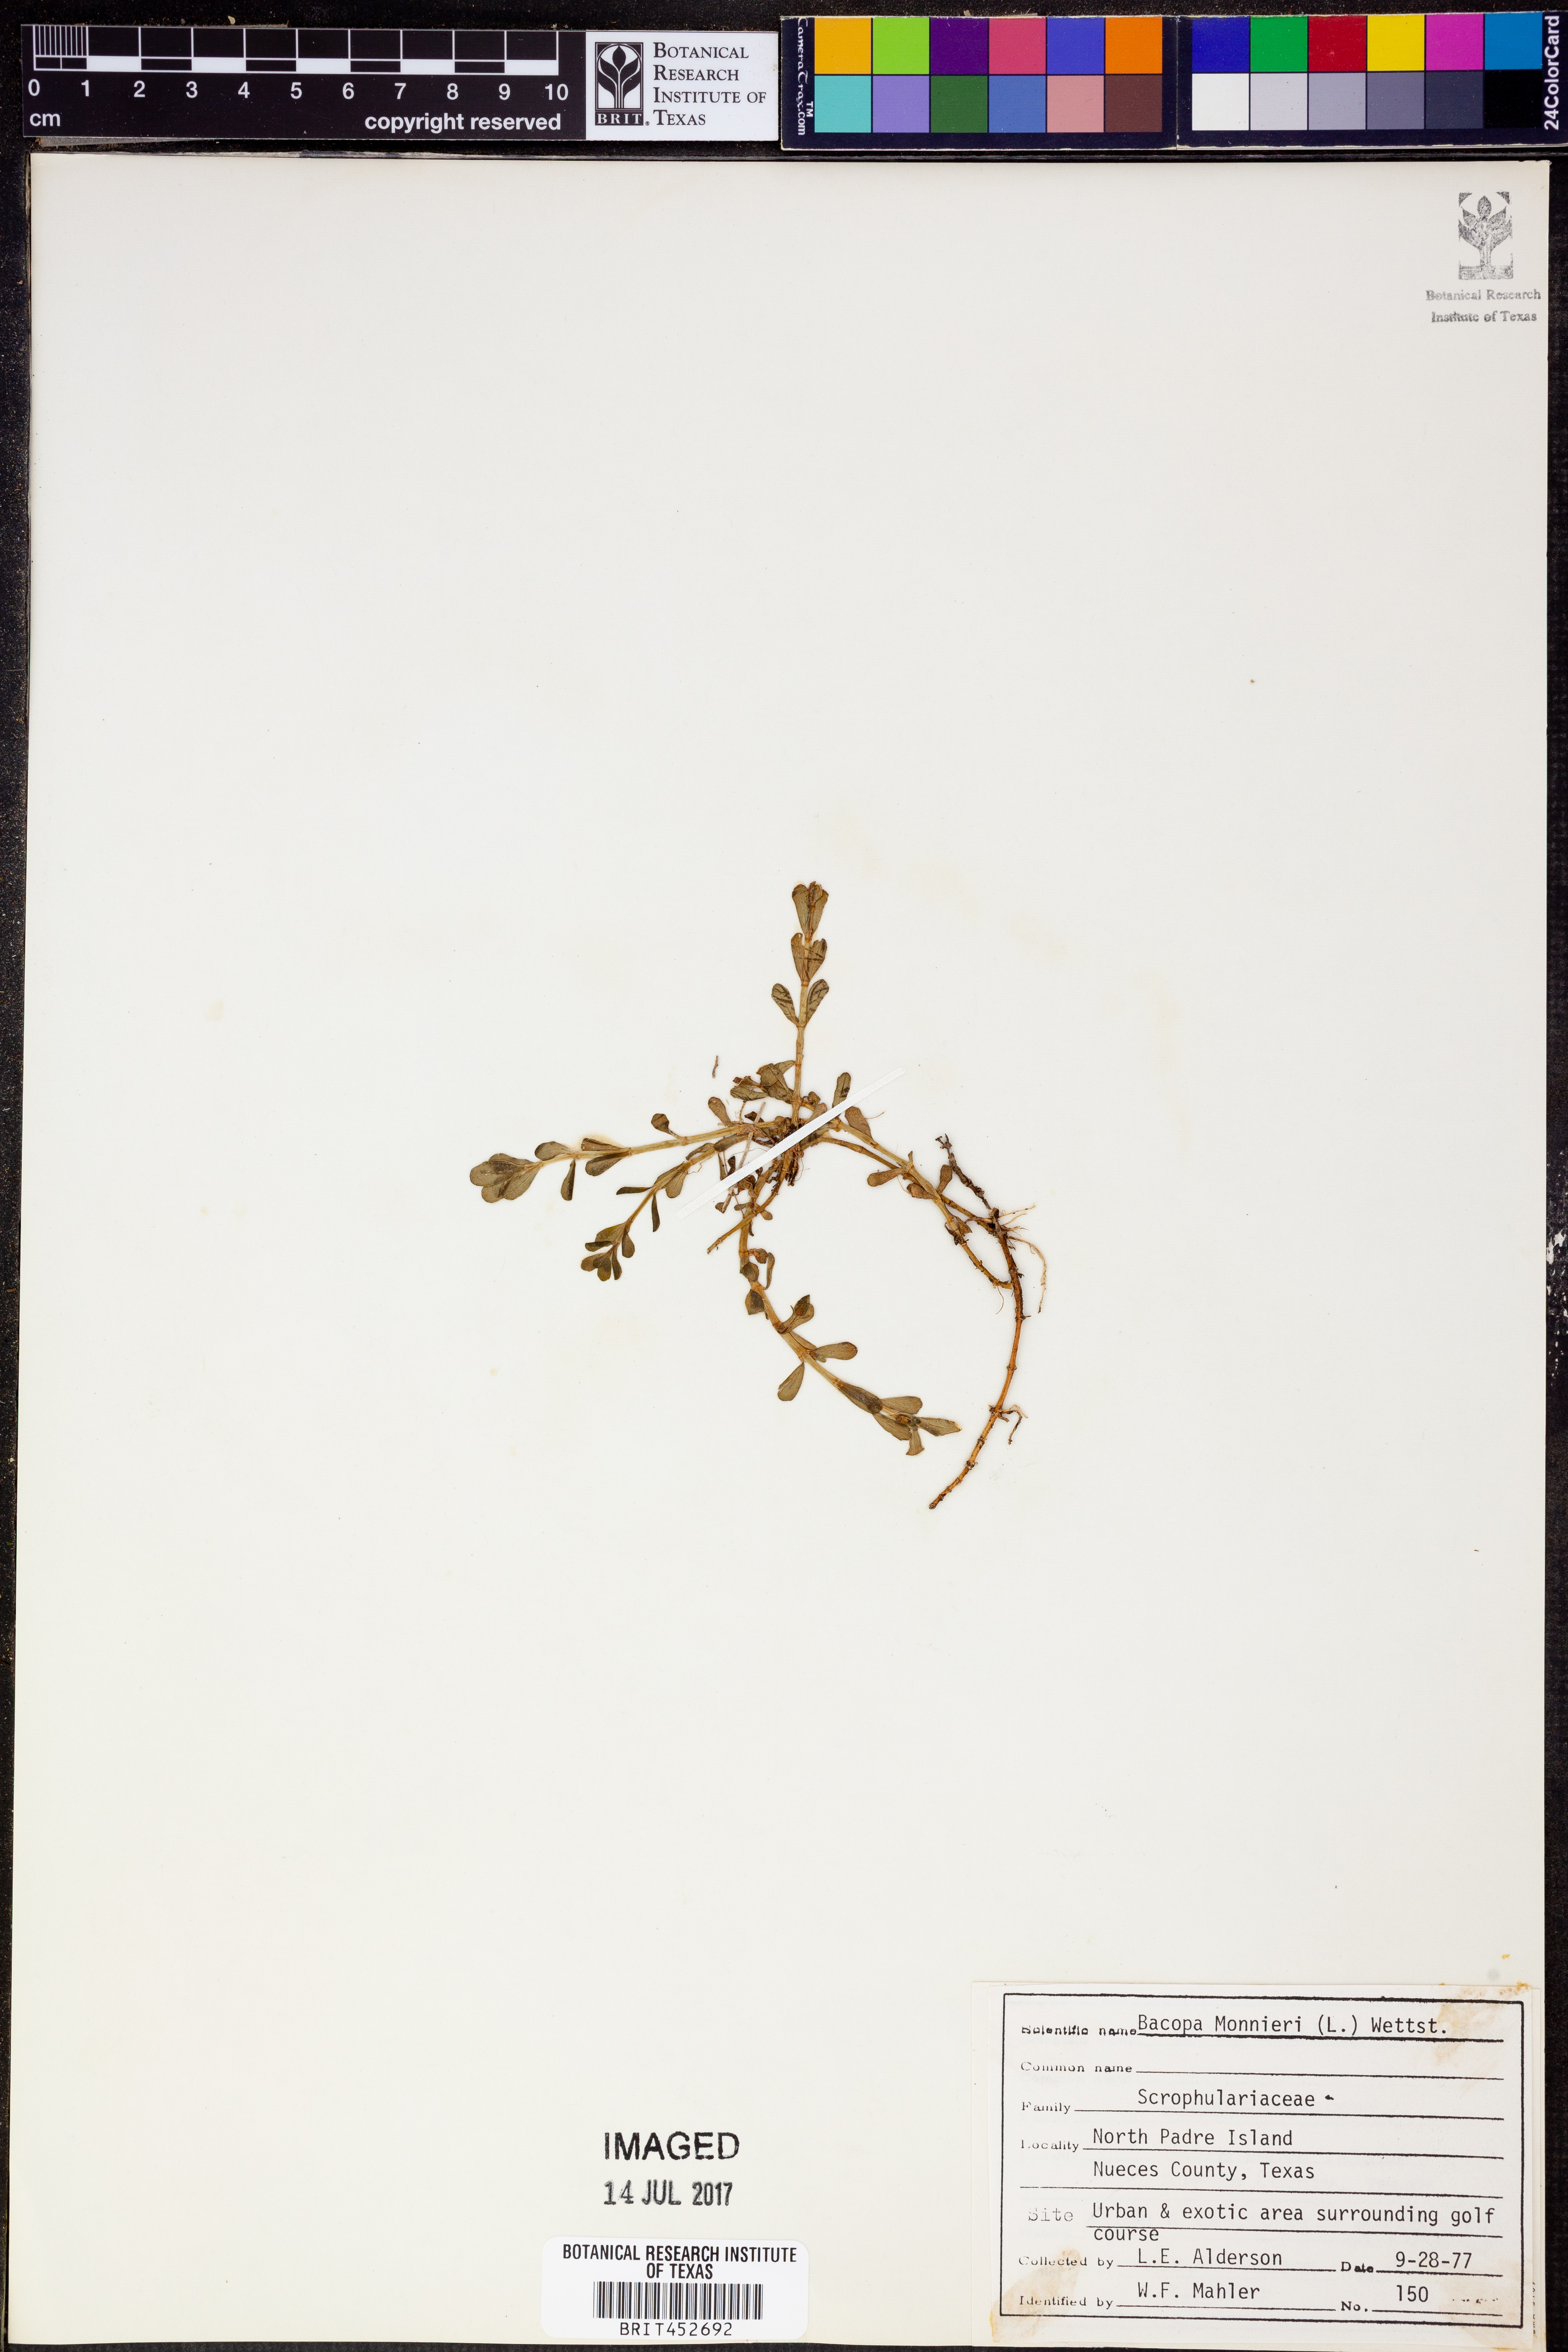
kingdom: Plantae
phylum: Tracheophyta
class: Magnoliopsida
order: Lamiales
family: Plantaginaceae
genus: Bacopa
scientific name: Bacopa monnieri
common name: Indian-pennywort
